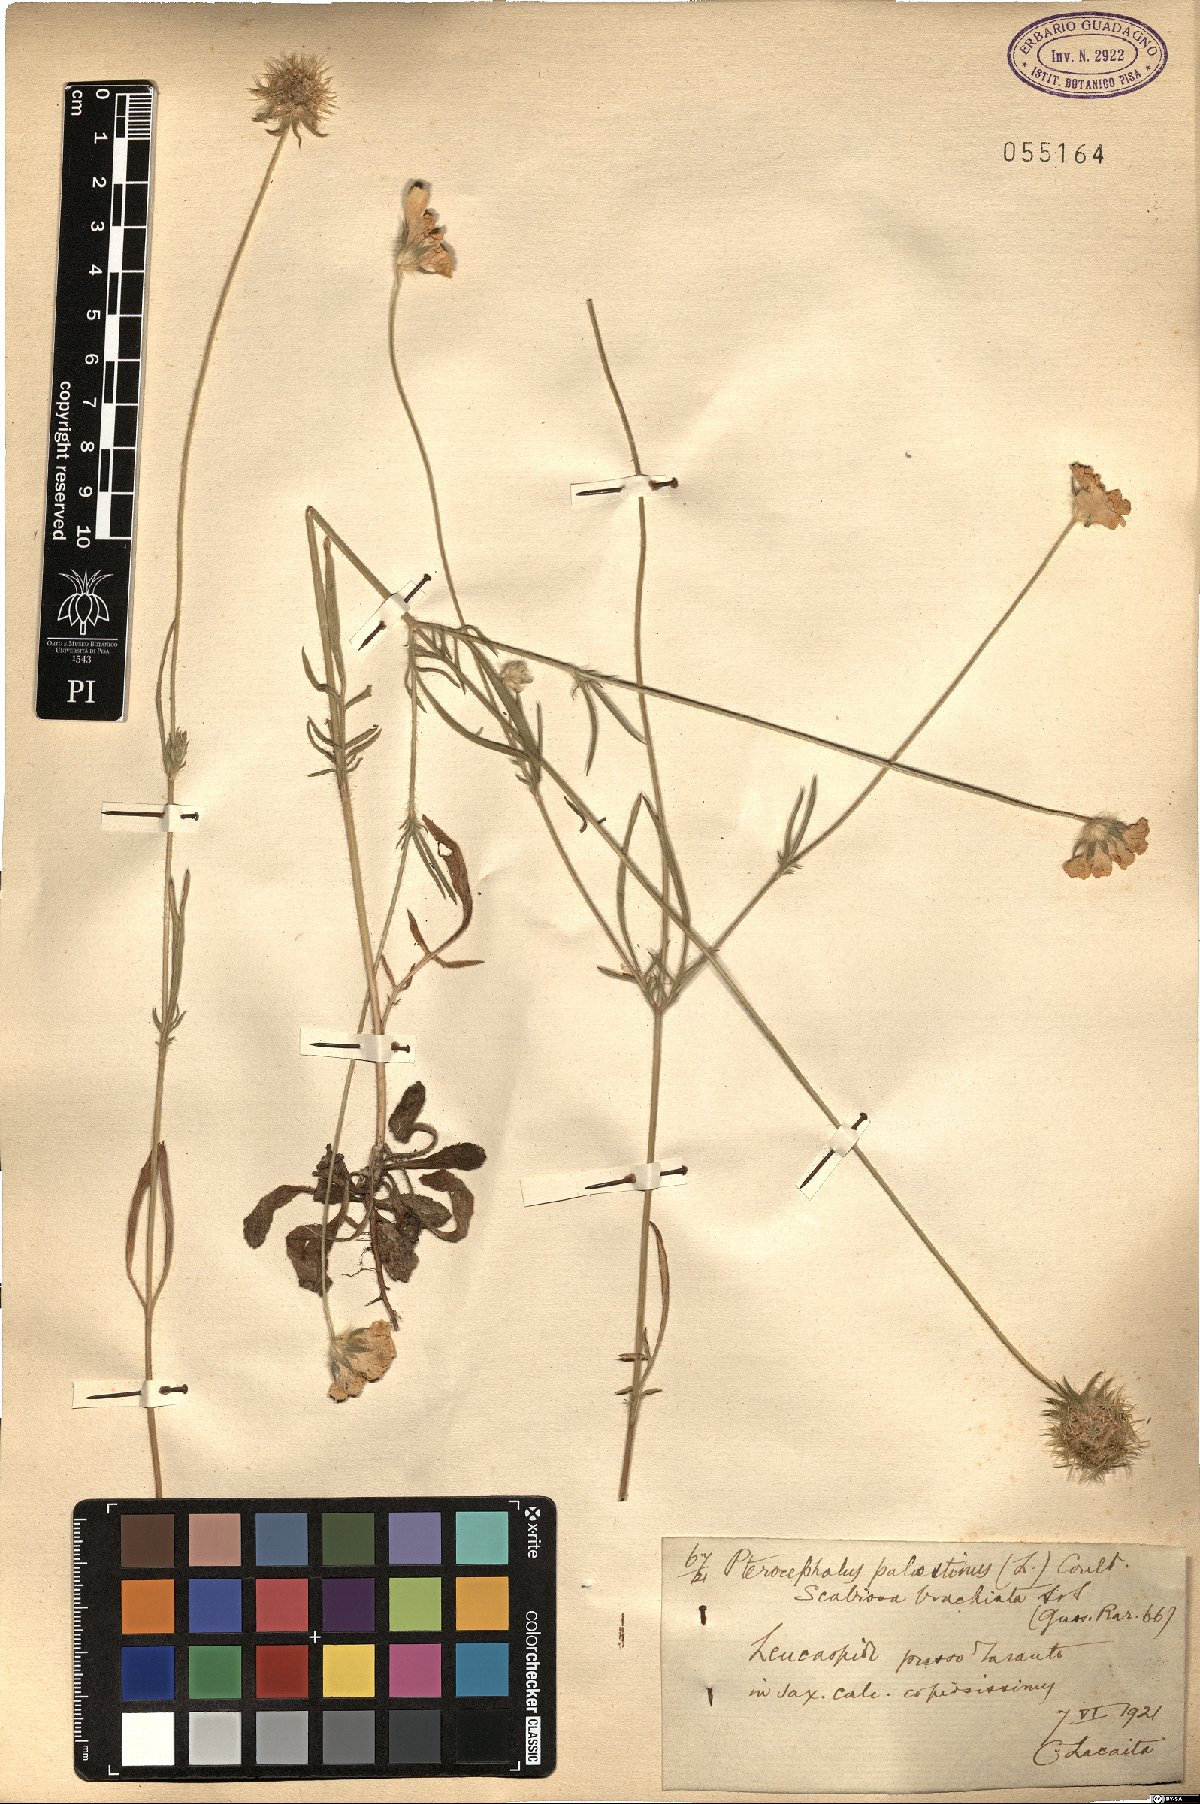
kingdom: Plantae
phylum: Tracheophyta
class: Magnoliopsida
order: Dipsacales
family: Caprifoliaceae
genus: Lomelosia
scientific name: Lomelosia palaestina
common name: Balkan pincushions
